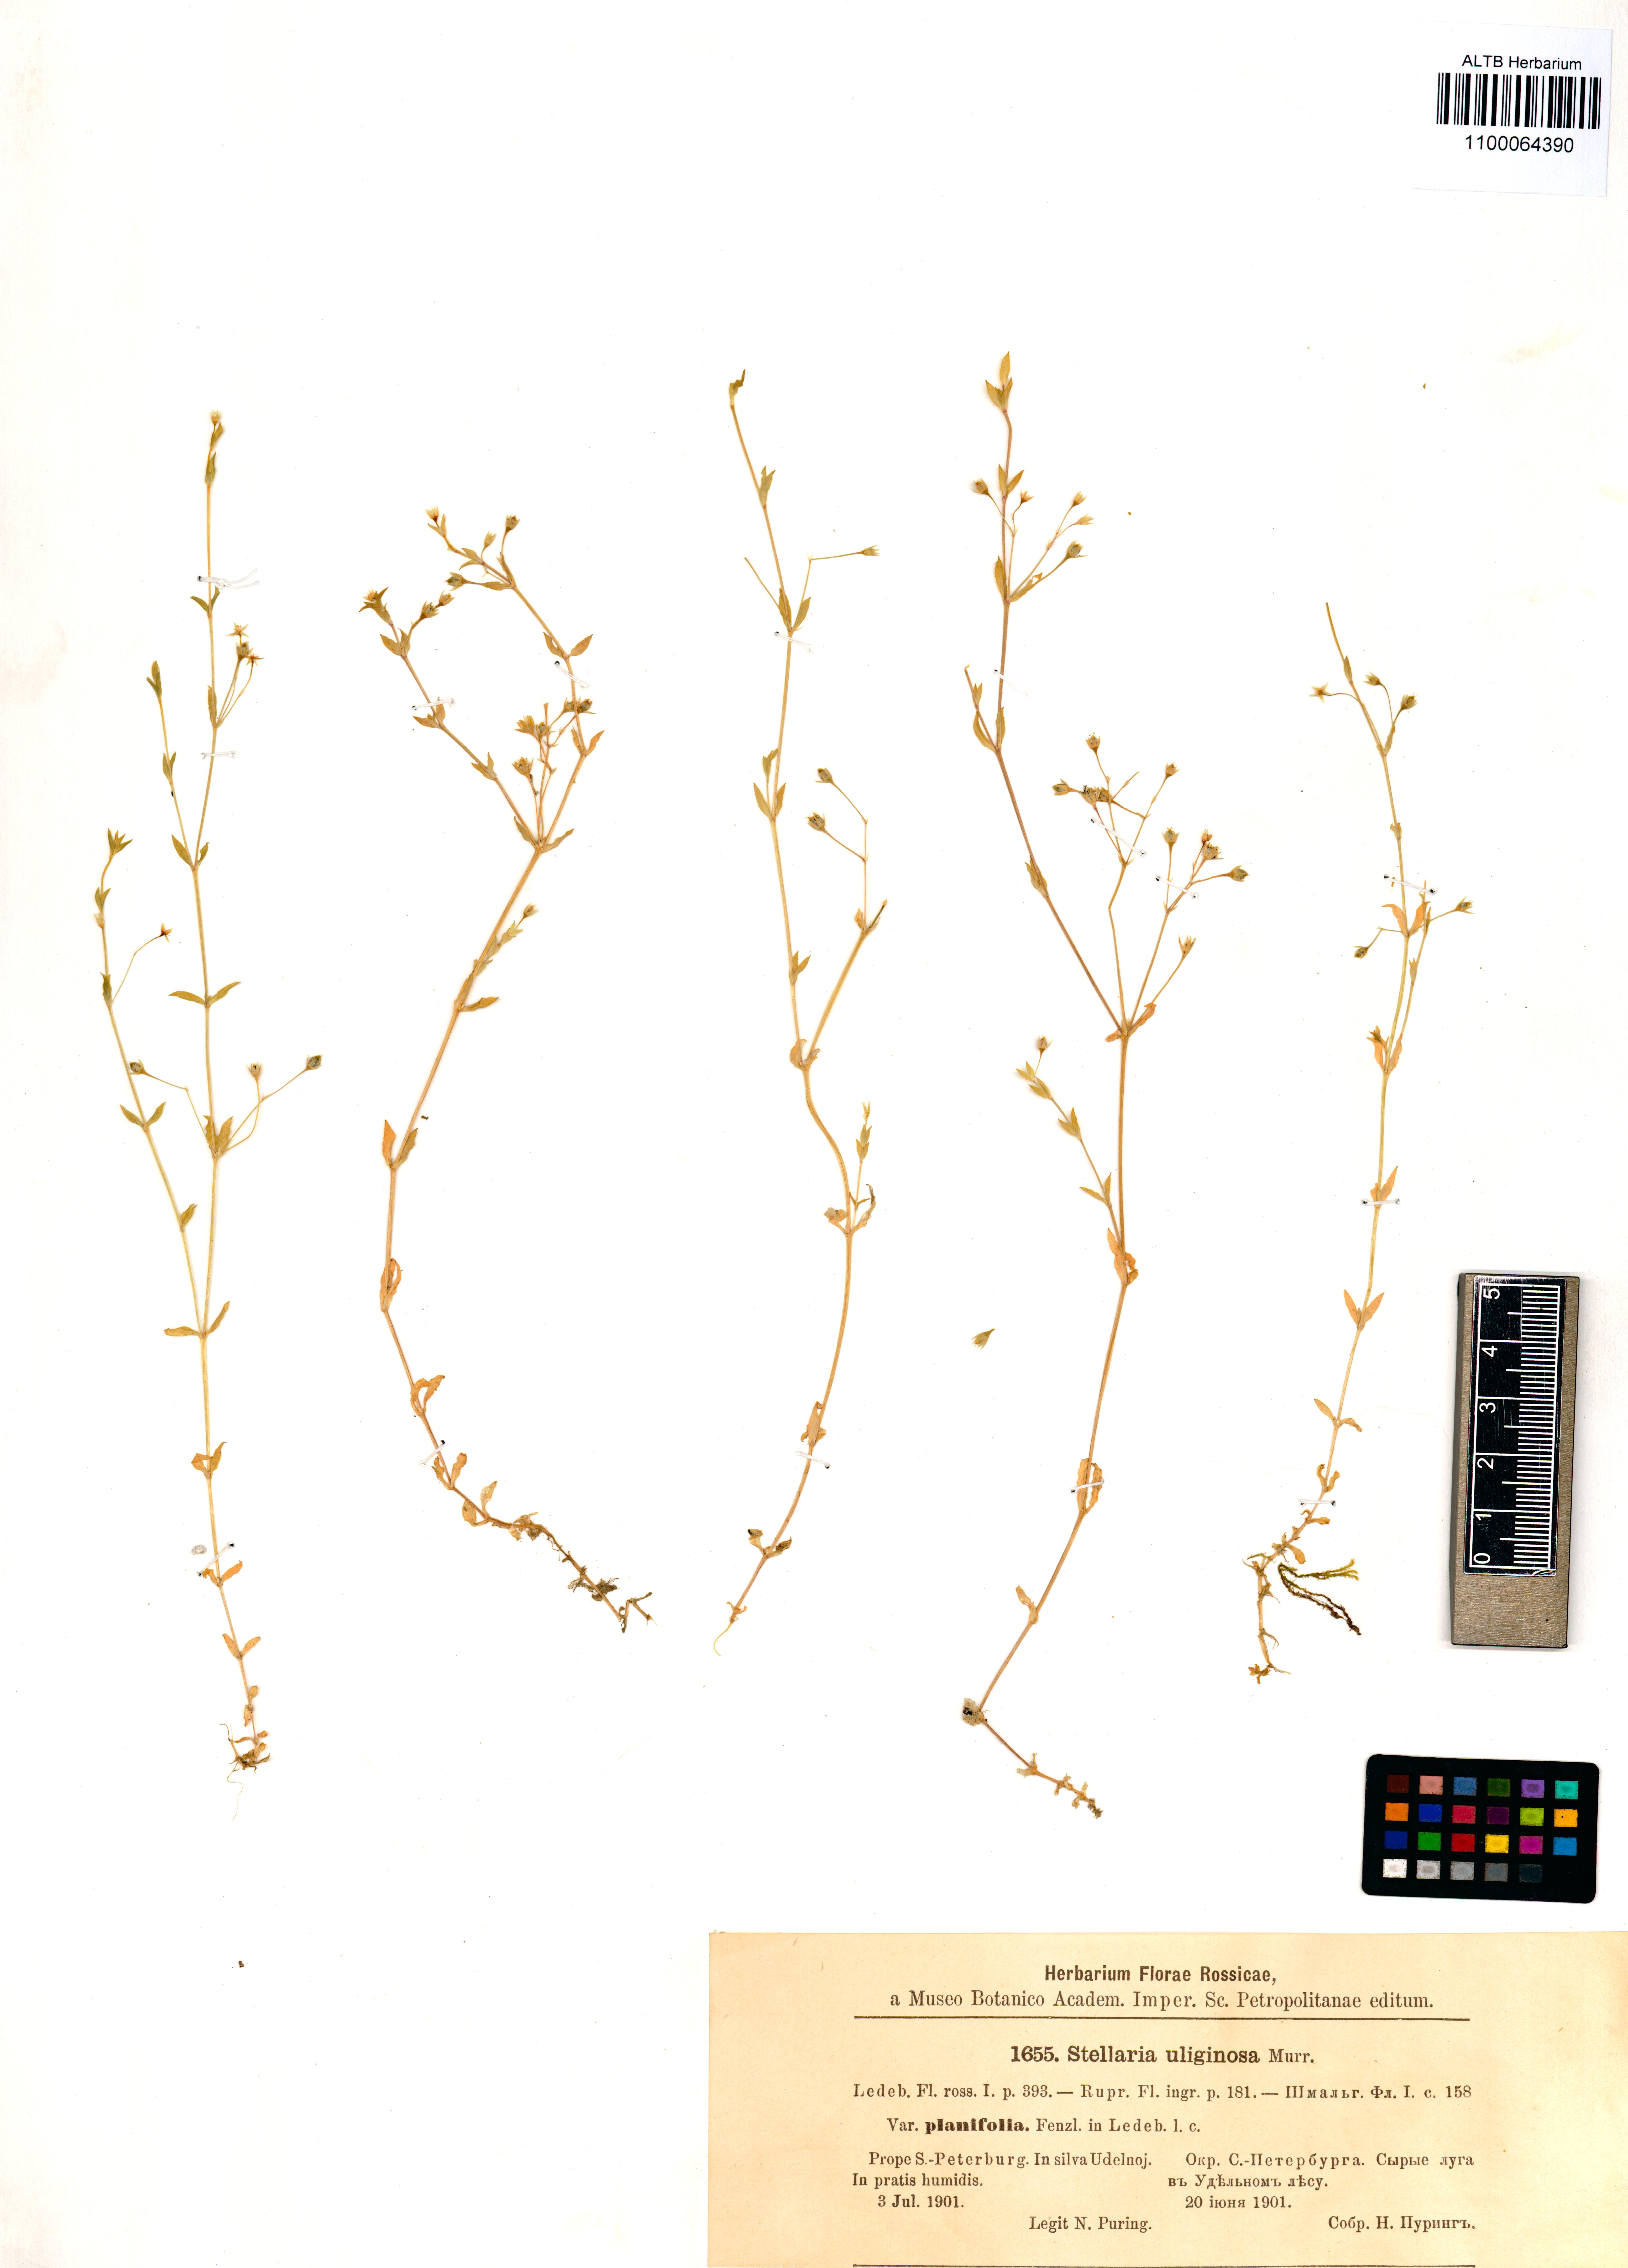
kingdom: Plantae
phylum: Tracheophyta
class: Magnoliopsida
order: Caryophyllales
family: Caryophyllaceae
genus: Stellaria
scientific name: Stellaria alsine
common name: Bog stitchwort
